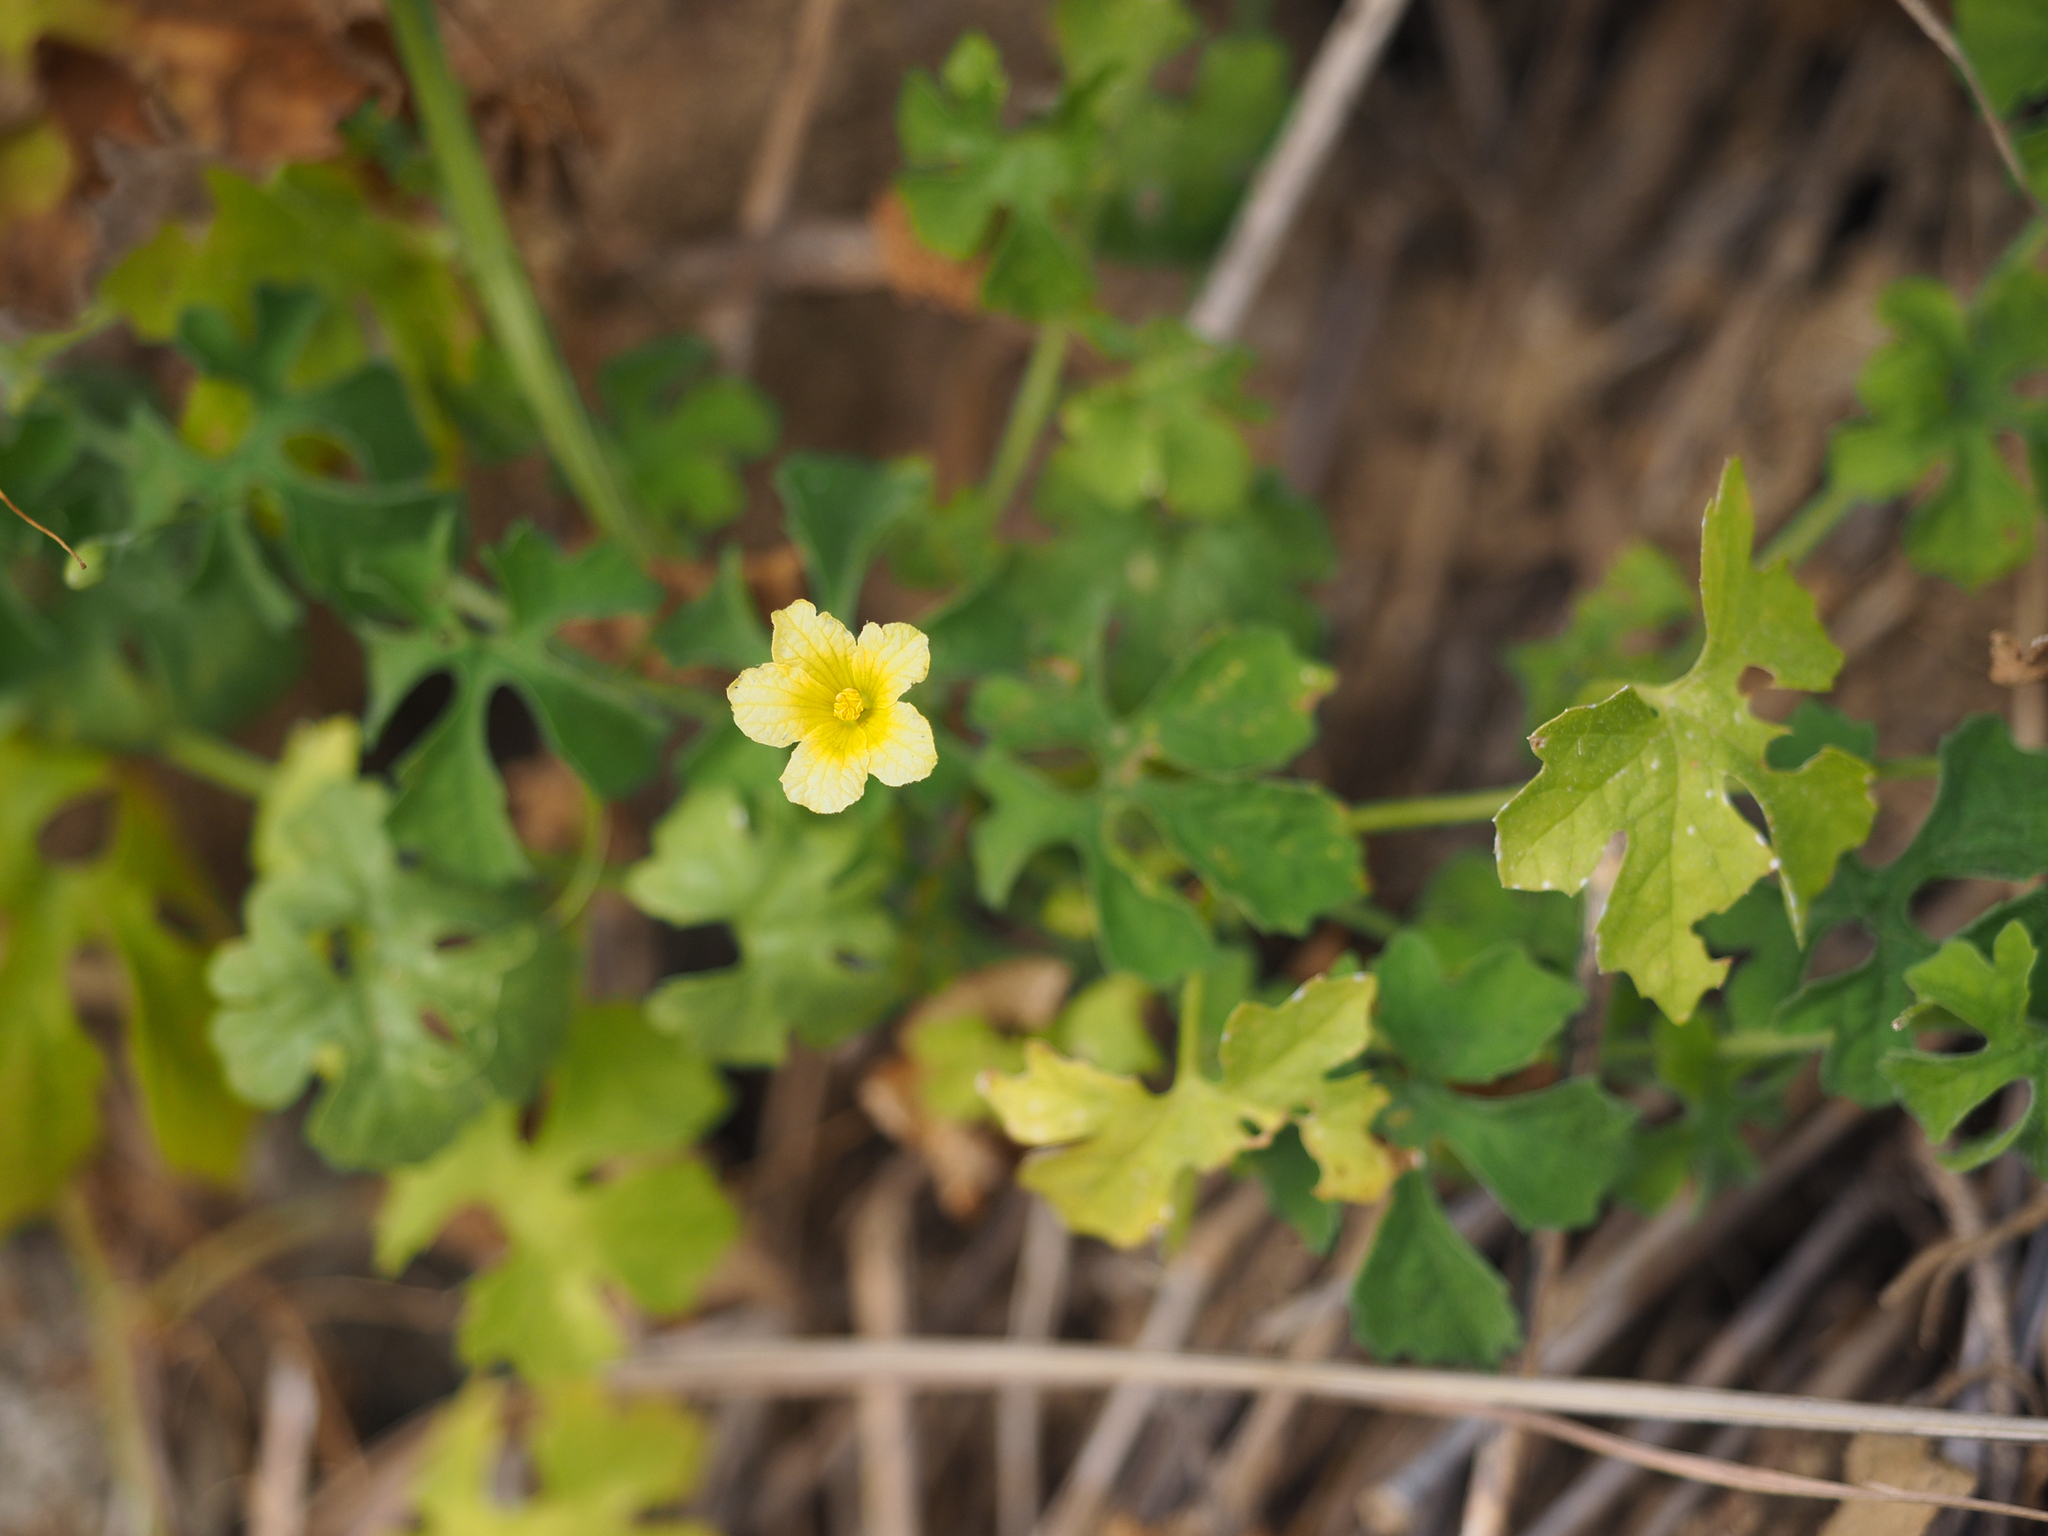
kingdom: Plantae
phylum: Tracheophyta
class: Magnoliopsida
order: Cucurbitales
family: Cucurbitaceae
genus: Momordica
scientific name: Momordica charantia
